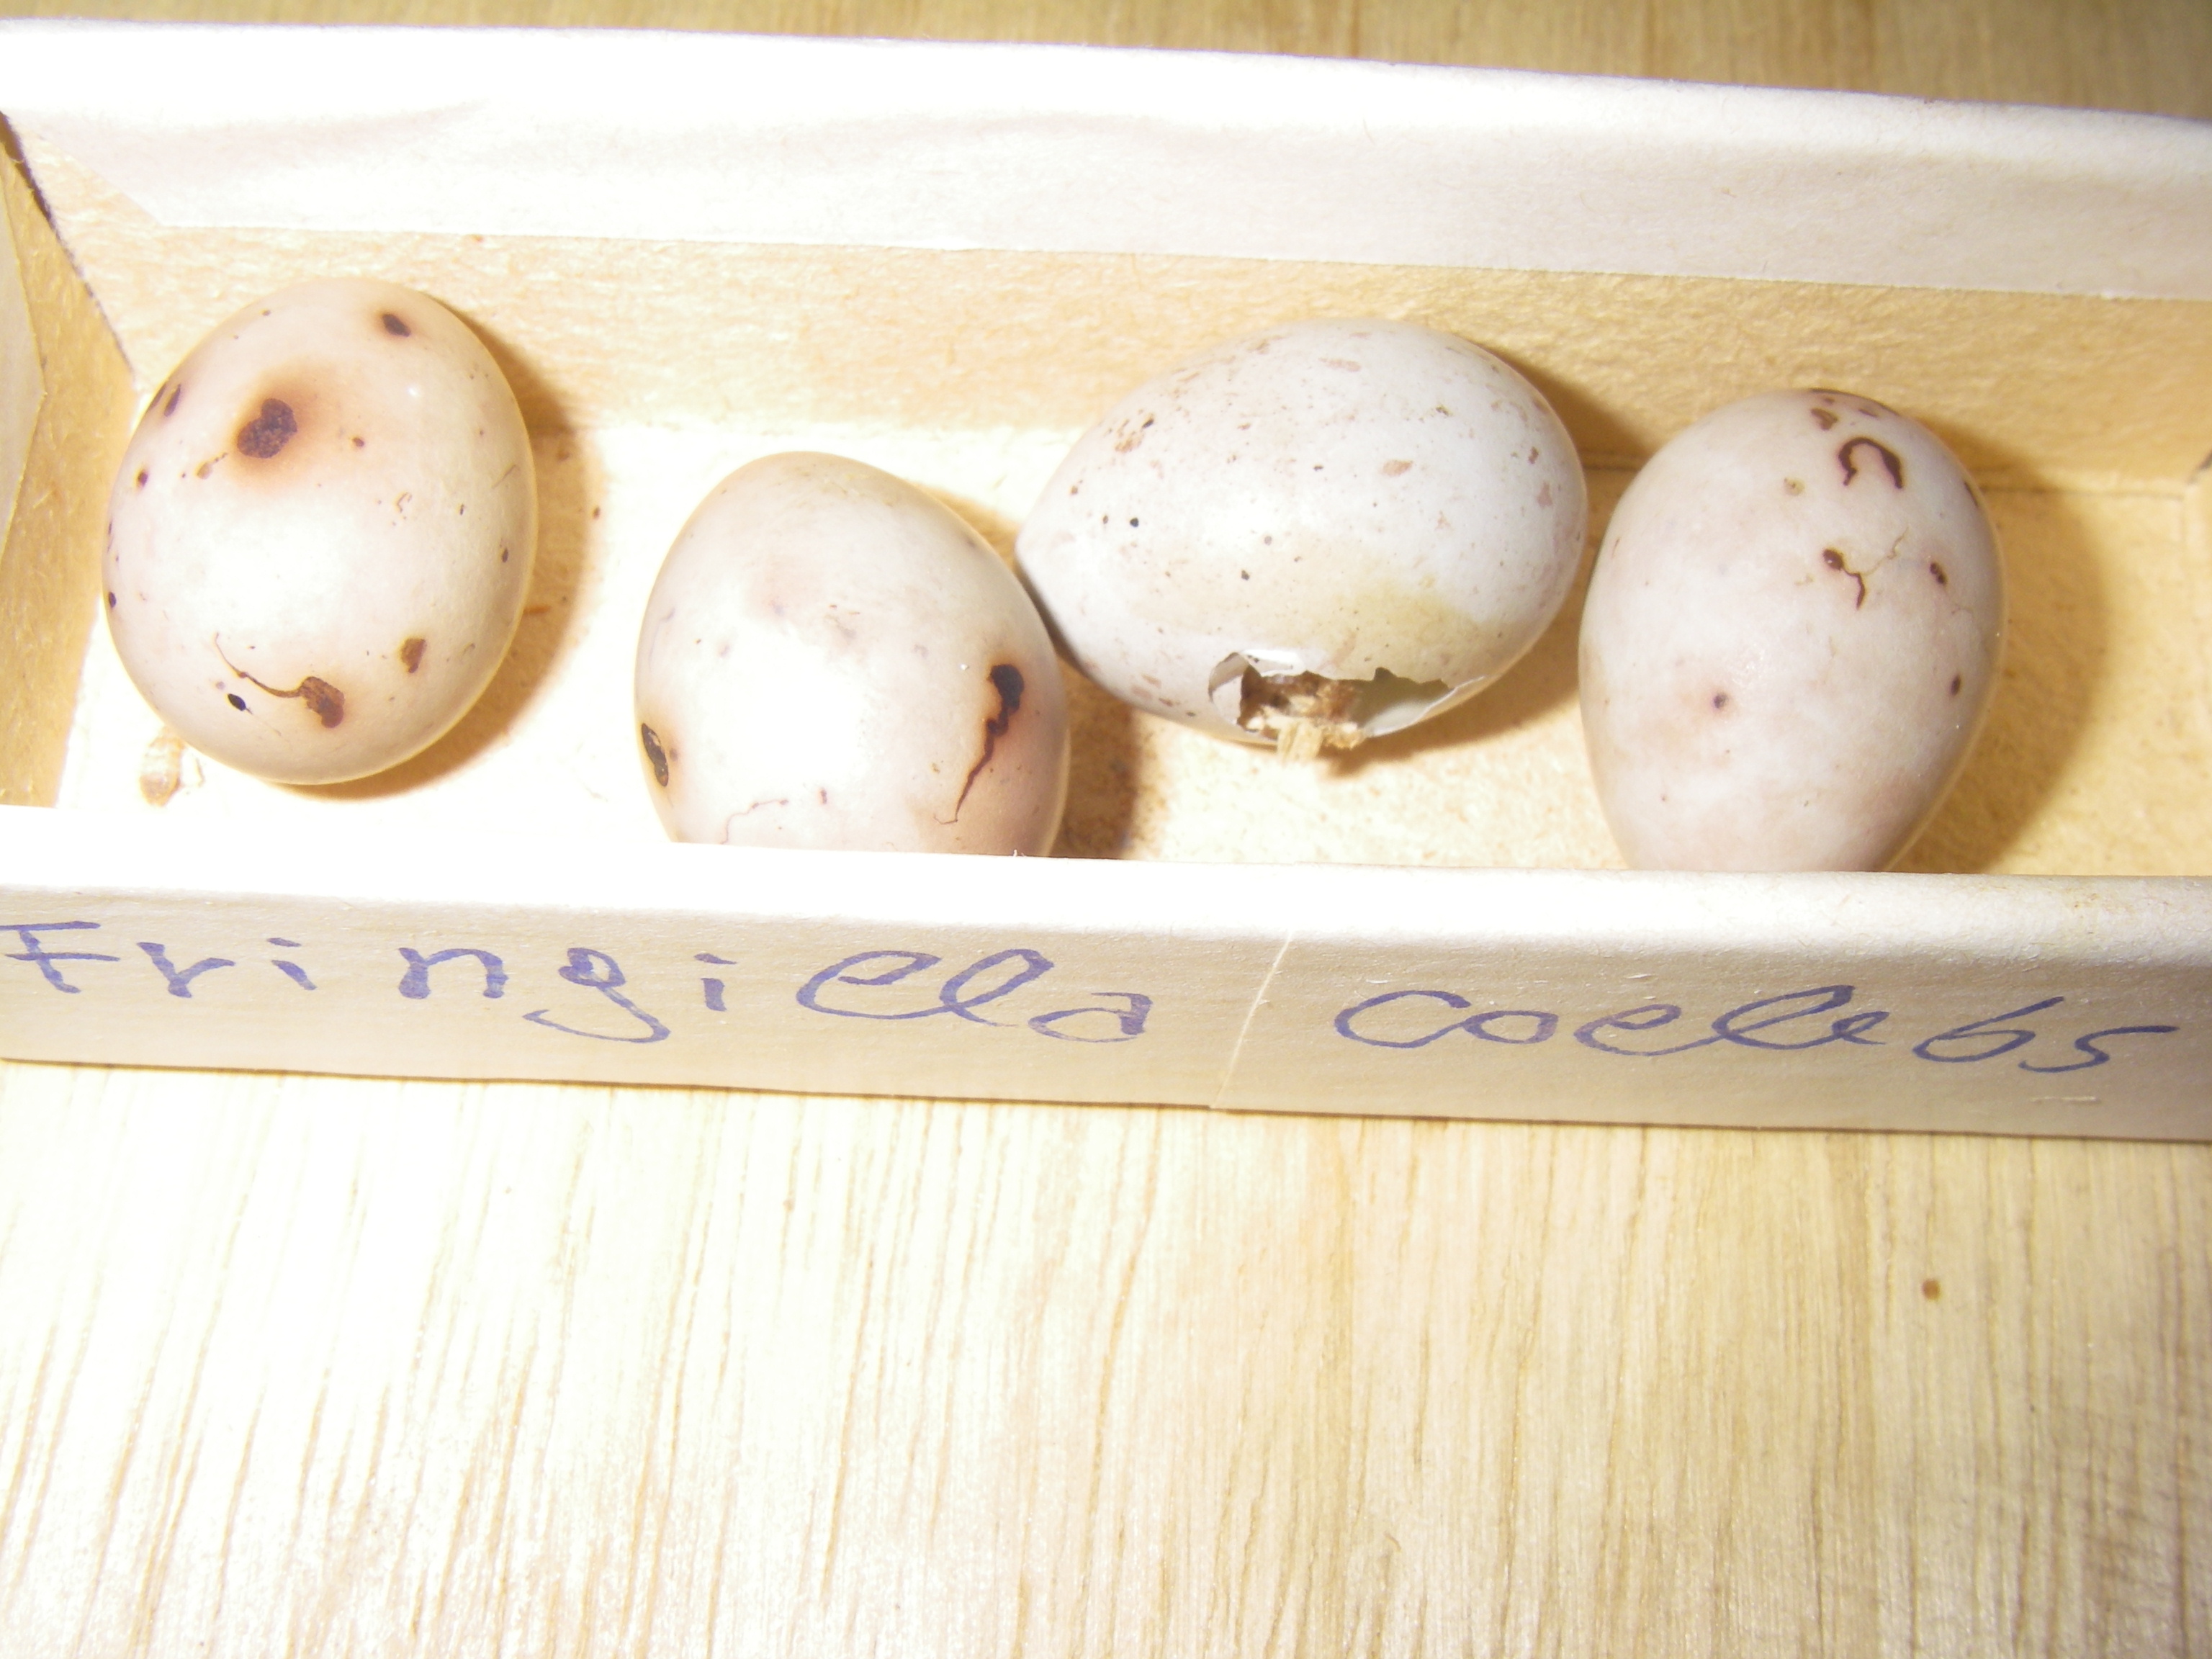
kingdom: Animalia
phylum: Chordata
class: Aves
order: Passeriformes
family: Fringillidae
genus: Fringilla
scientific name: Fringilla coelebs
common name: Common chaffinch
